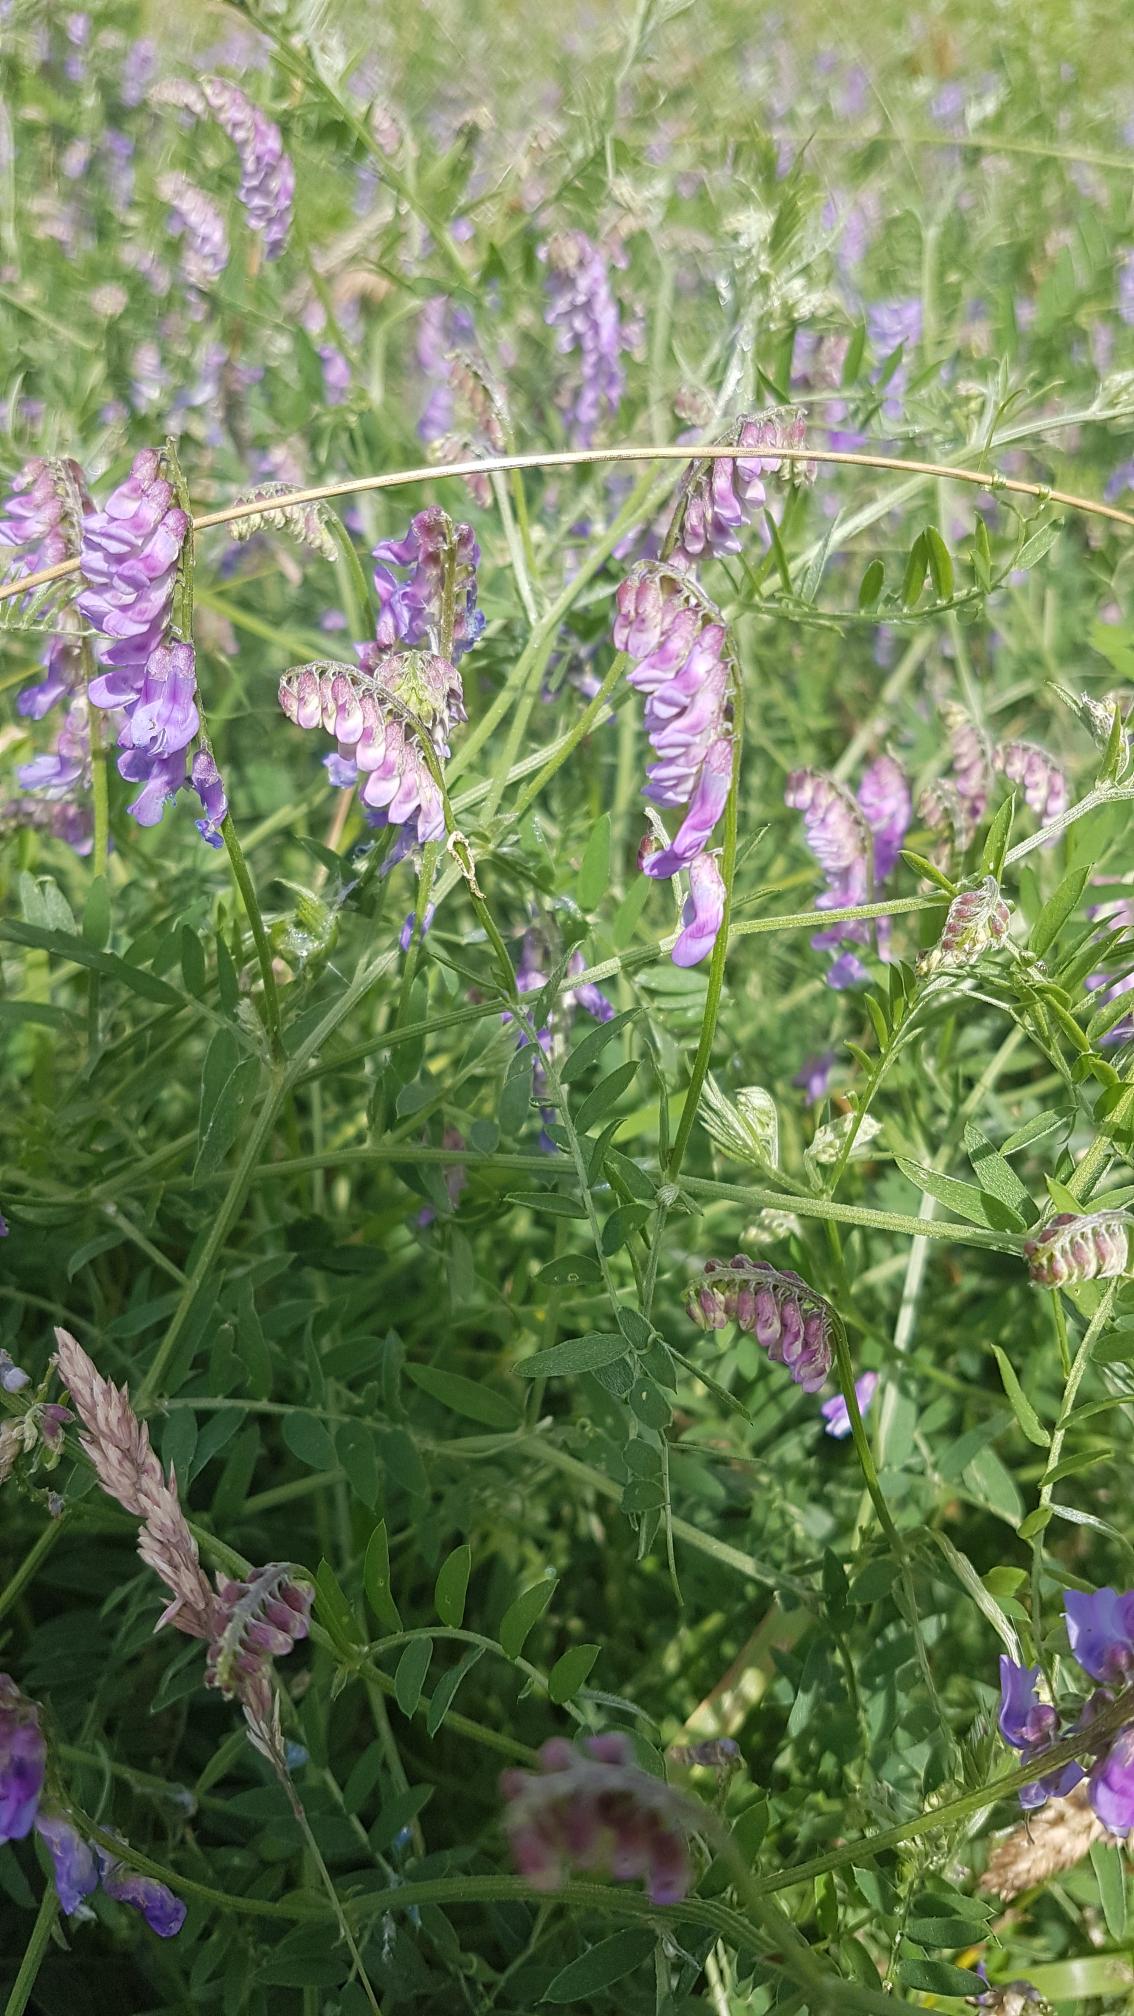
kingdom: Plantae
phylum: Tracheophyta
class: Magnoliopsida
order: Fabales
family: Fabaceae
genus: Vicia
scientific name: Vicia cracca
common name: Muse-vikke
